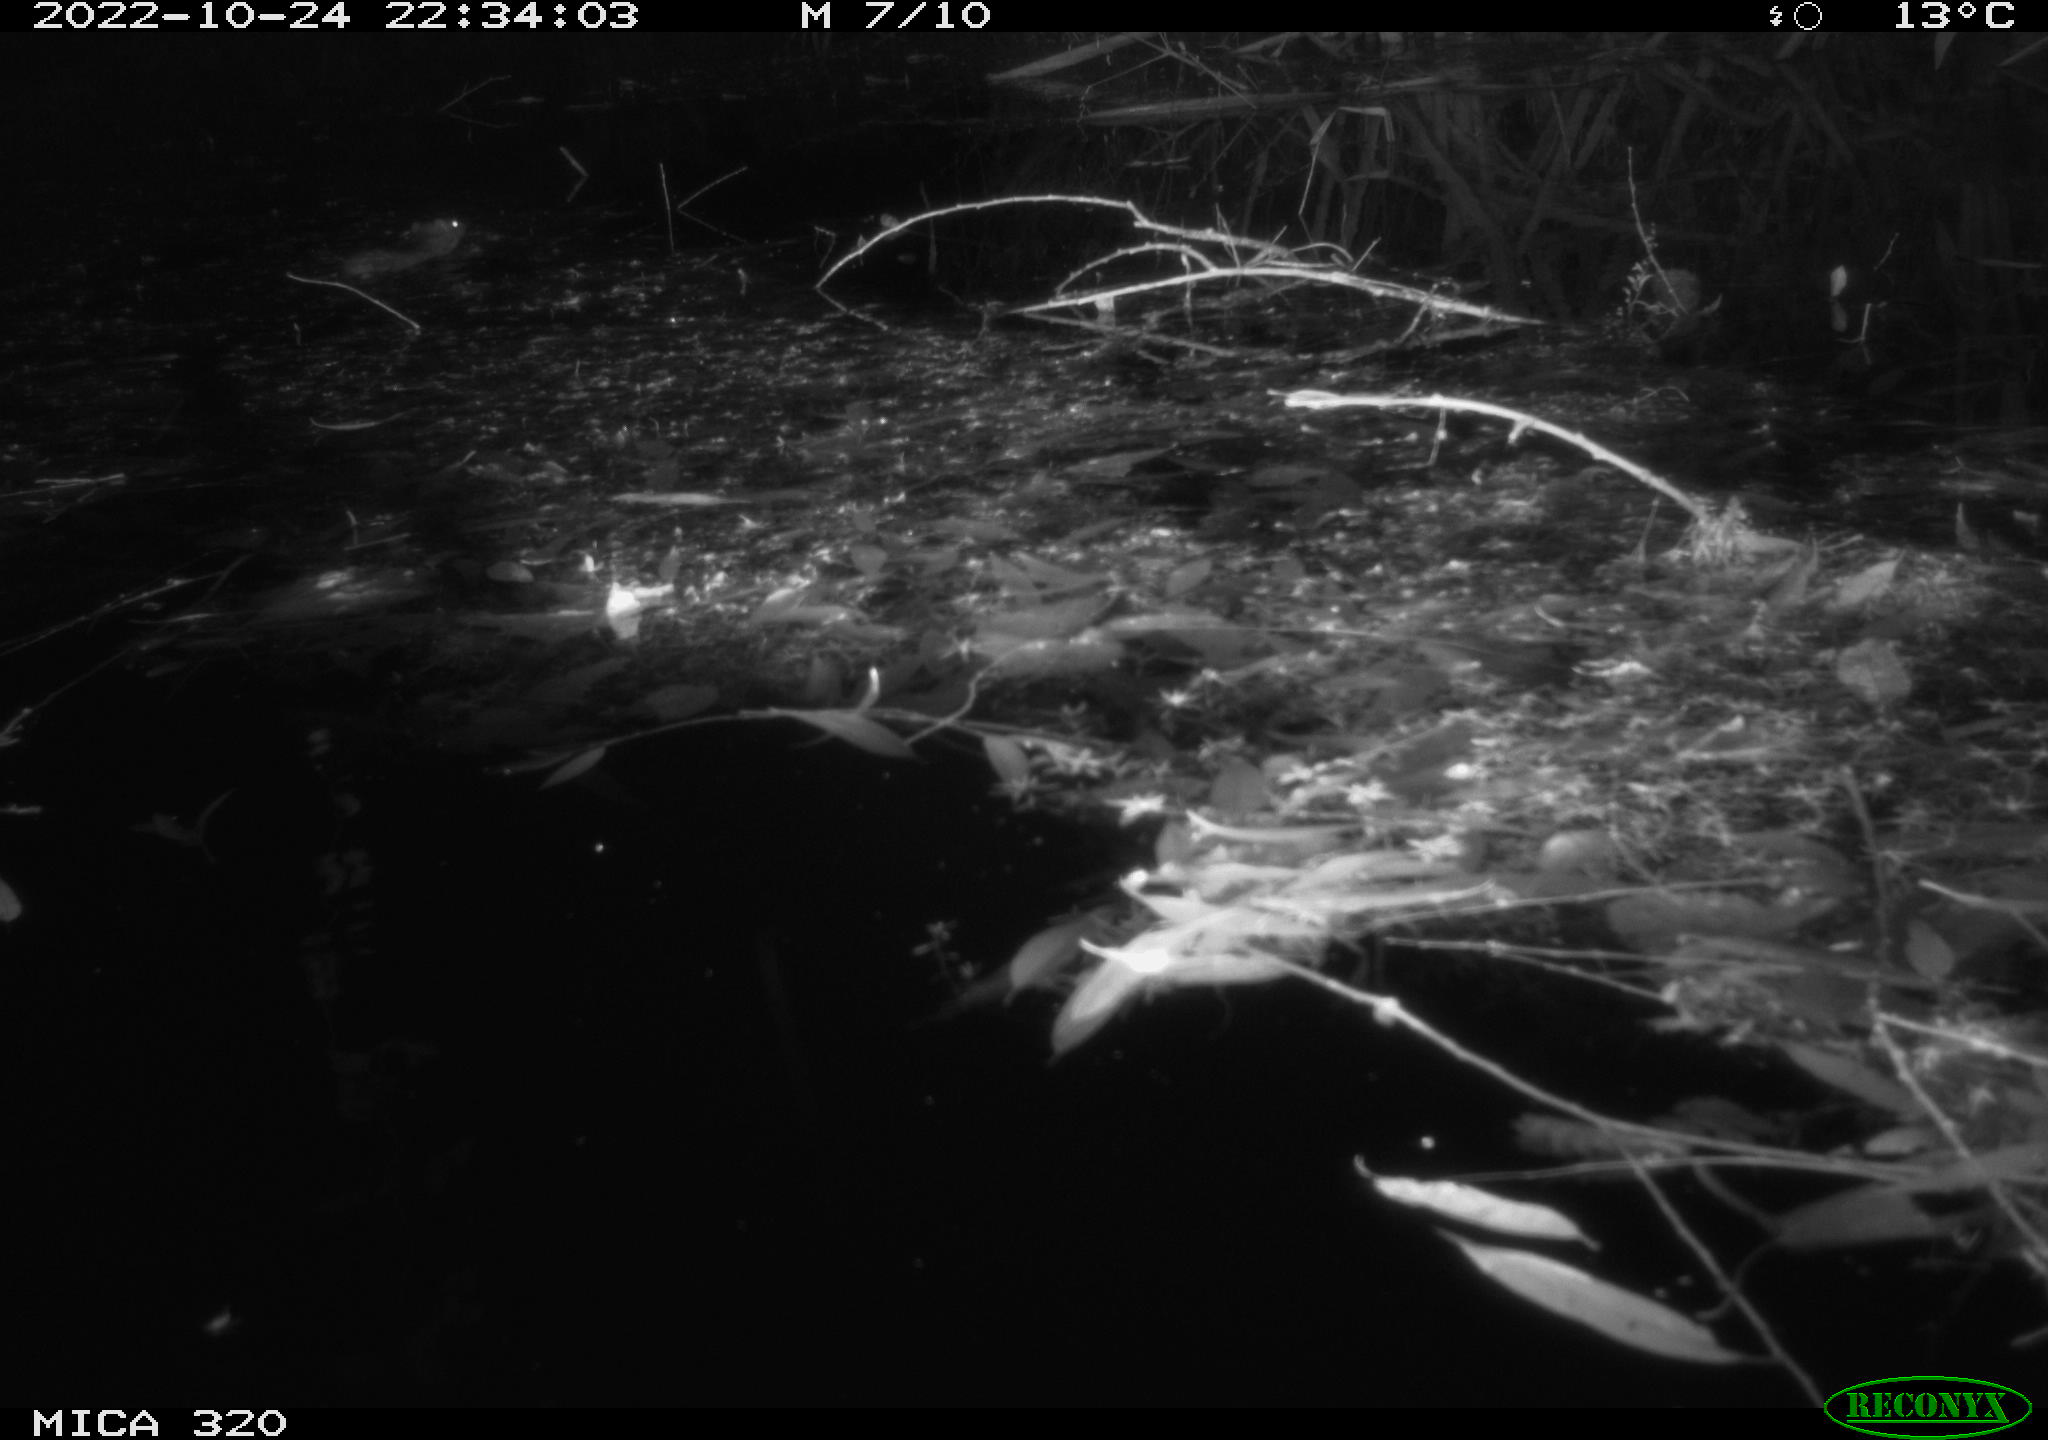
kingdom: Animalia
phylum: Chordata
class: Mammalia
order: Rodentia
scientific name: Rodentia
